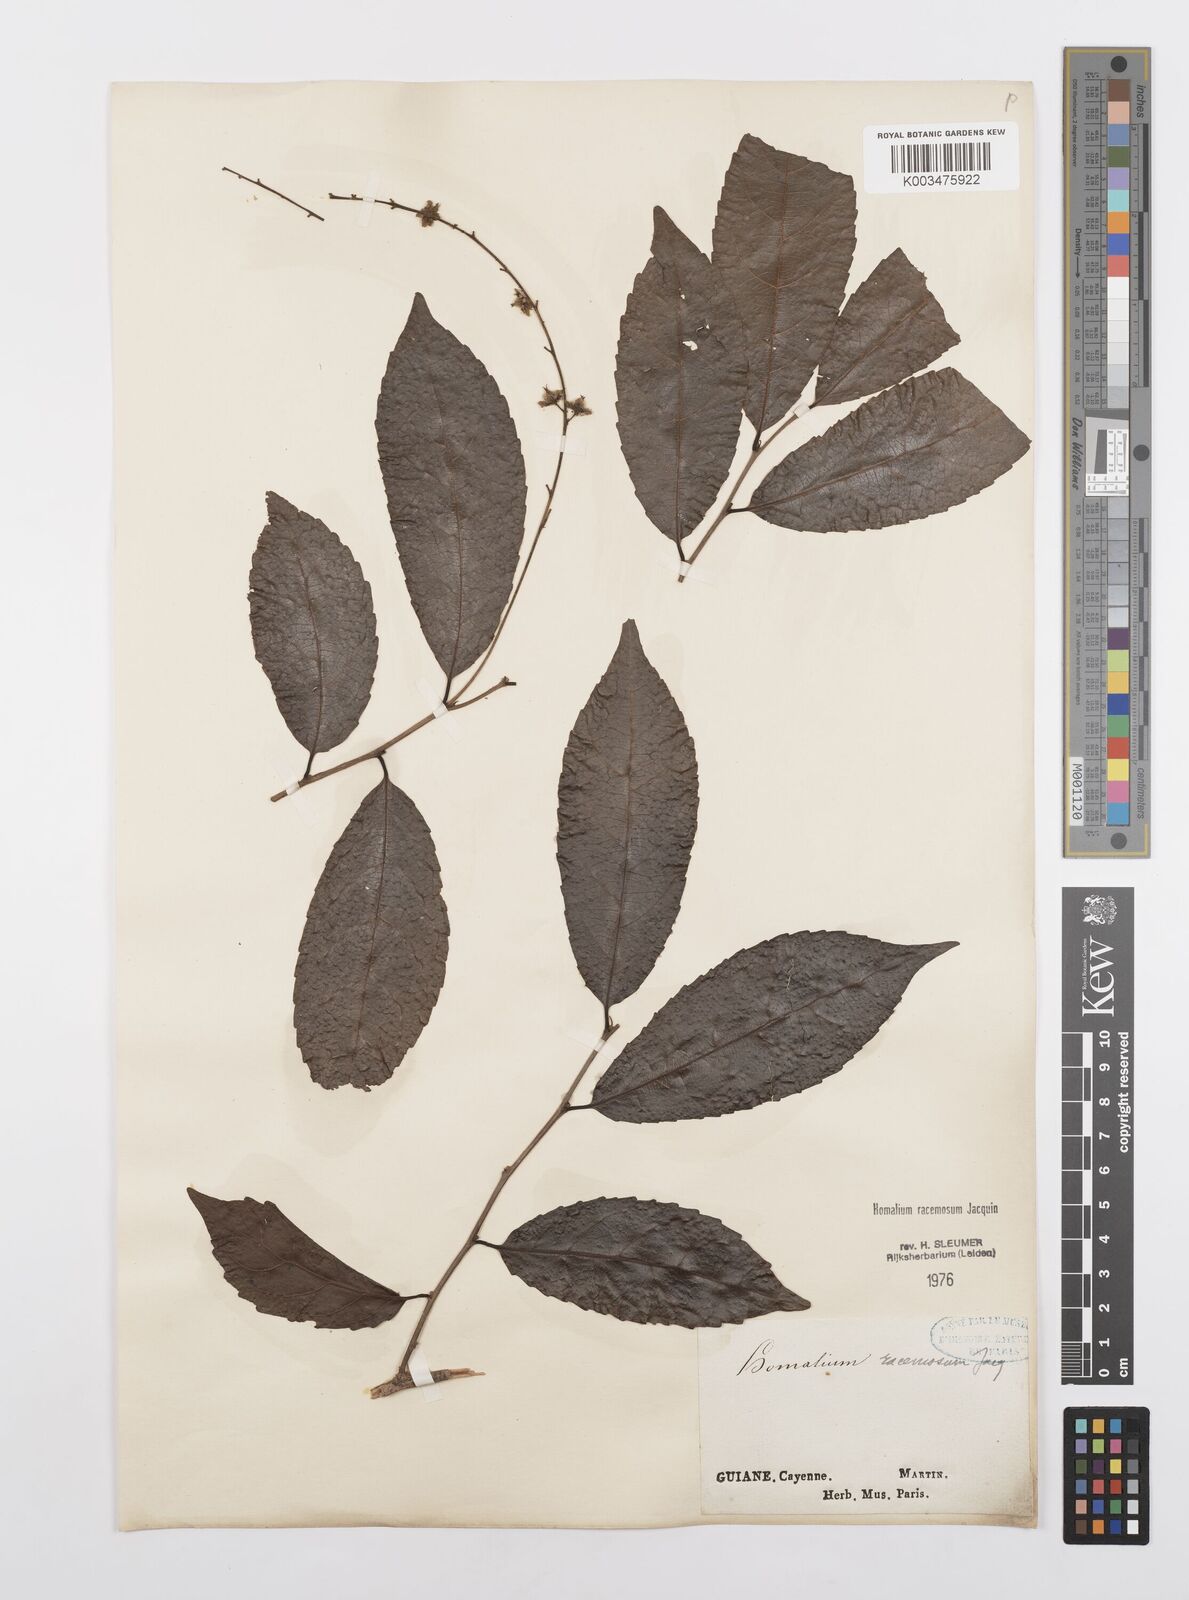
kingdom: Plantae
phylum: Tracheophyta
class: Magnoliopsida
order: Malpighiales
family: Salicaceae
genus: Homalium
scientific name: Homalium racemosum
